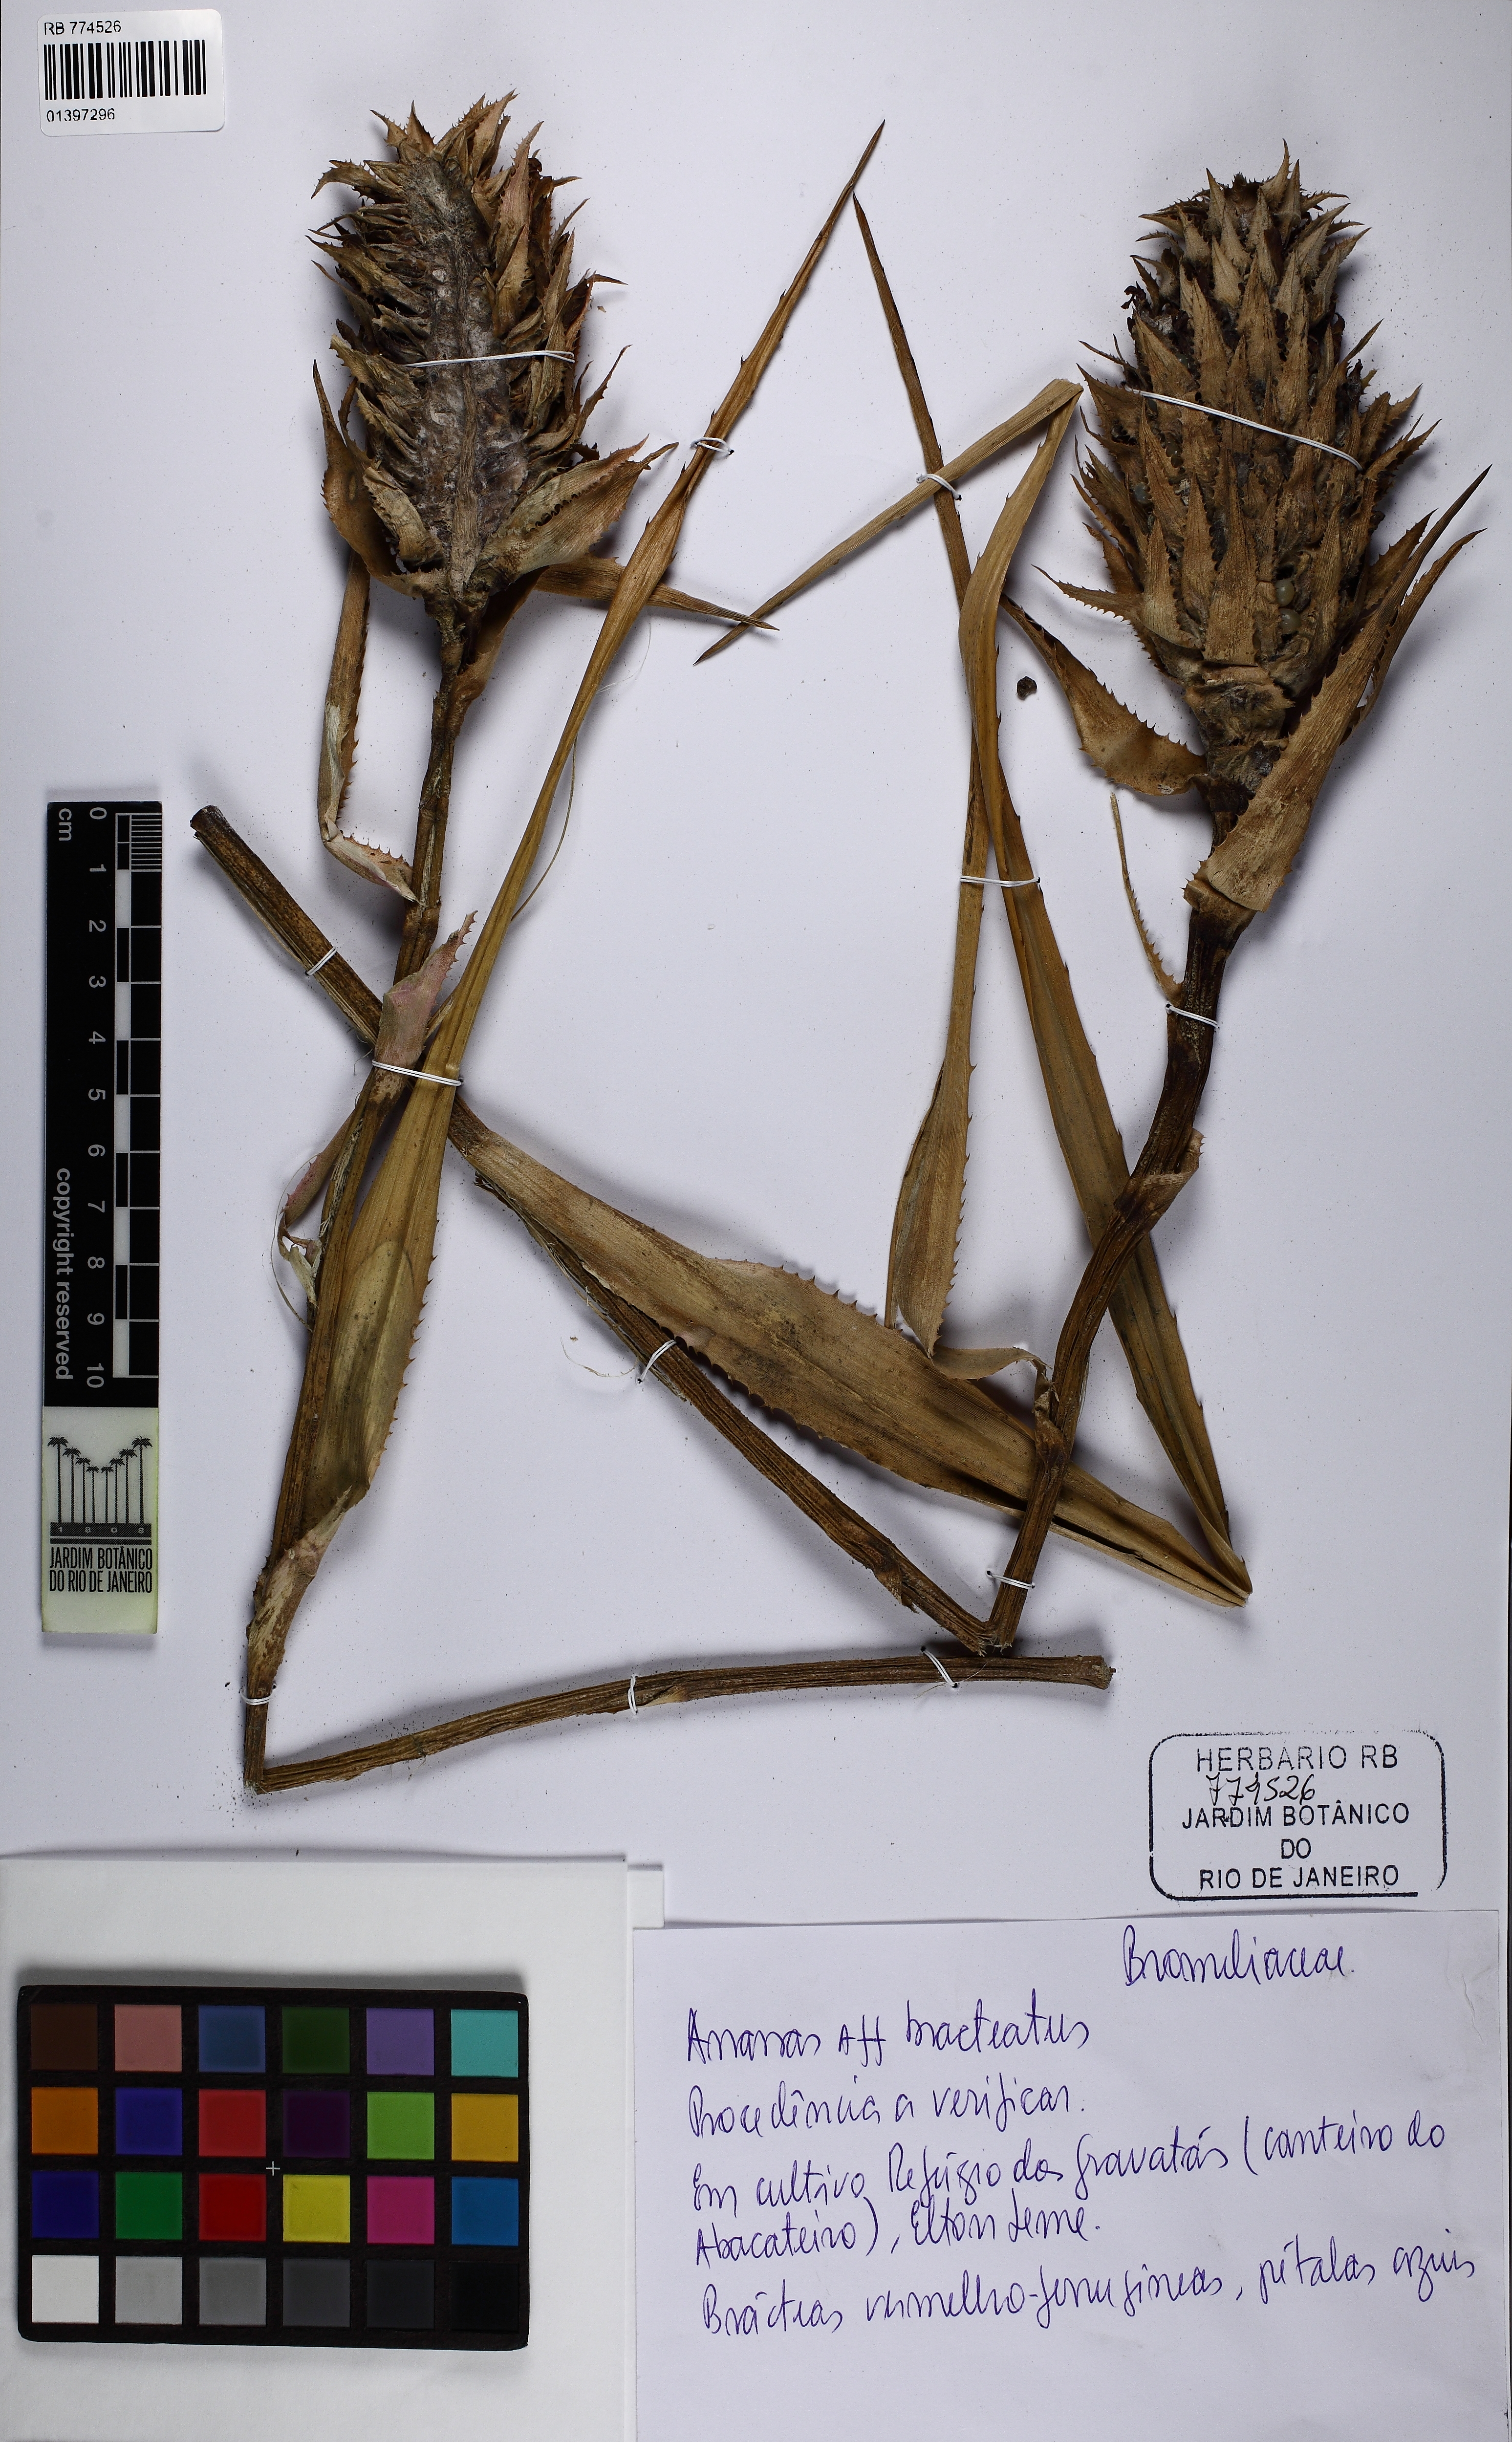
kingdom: Plantae
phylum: Tracheophyta
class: Liliopsida
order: Poales
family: Bromeliaceae
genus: Ananas
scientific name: Ananas comosus
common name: Pineapple
